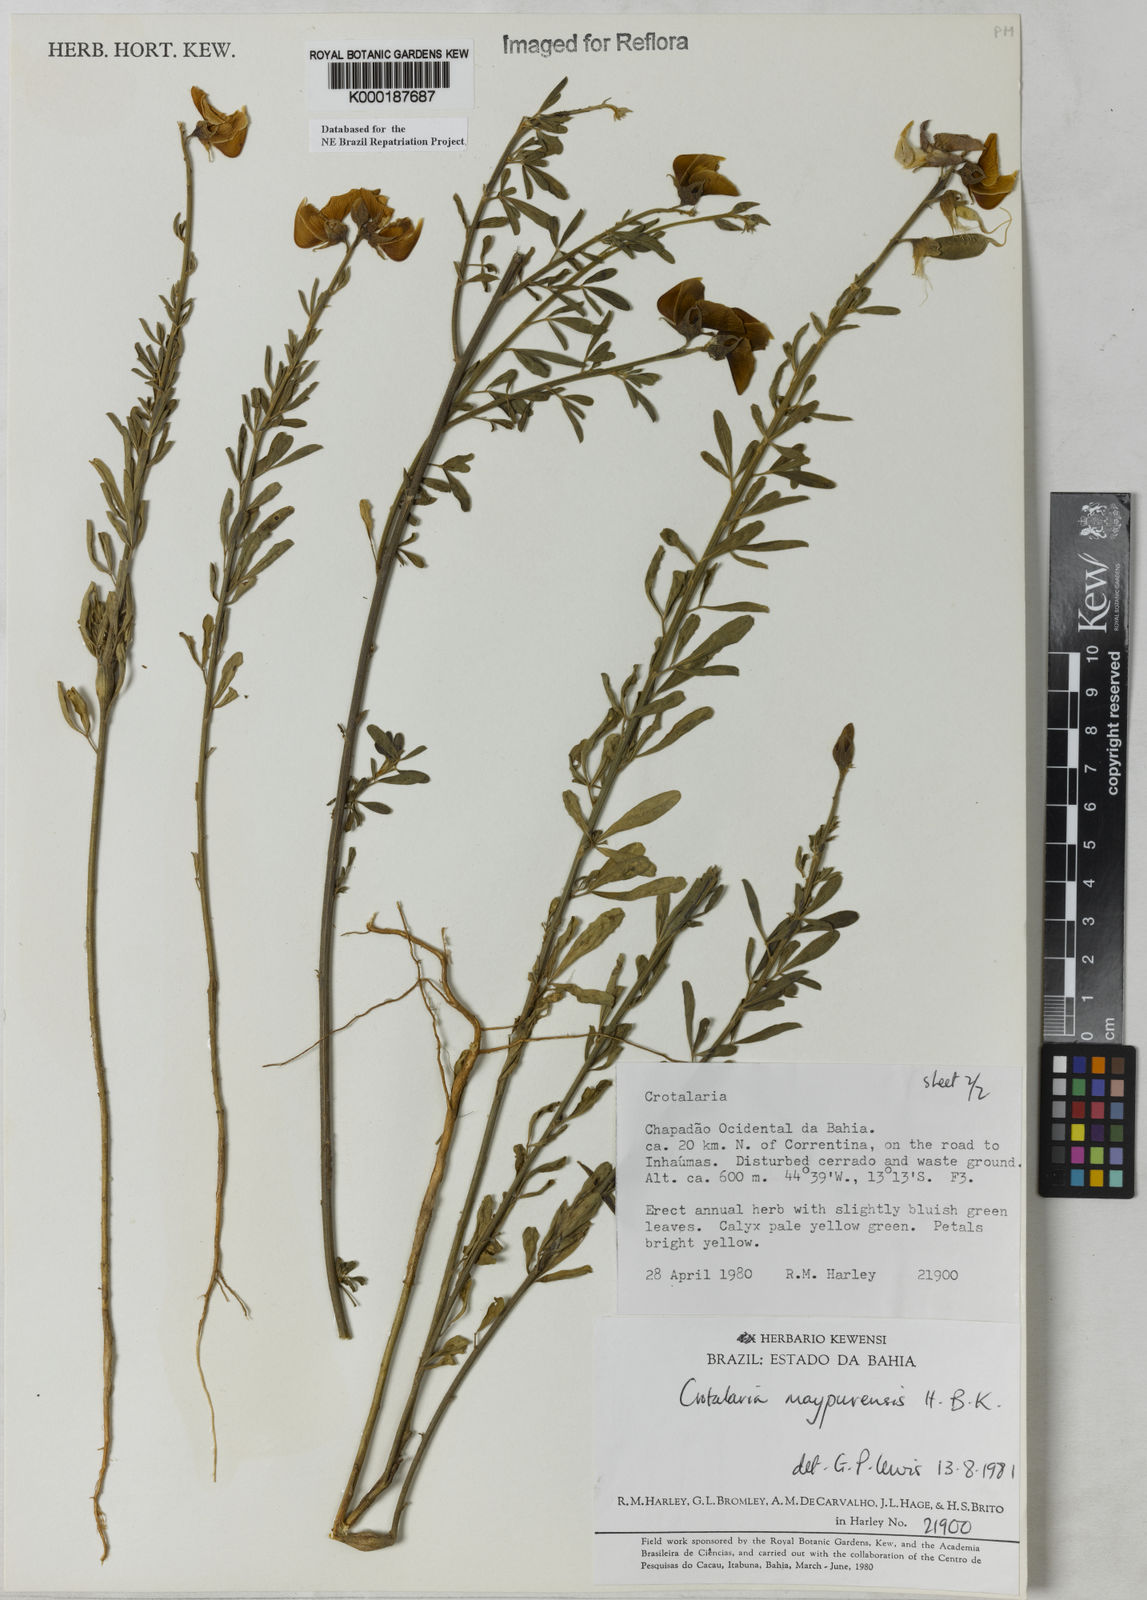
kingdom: Plantae
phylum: Tracheophyta
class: Magnoliopsida
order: Fabales
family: Fabaceae
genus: Crotalaria
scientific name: Crotalaria maypurensis
